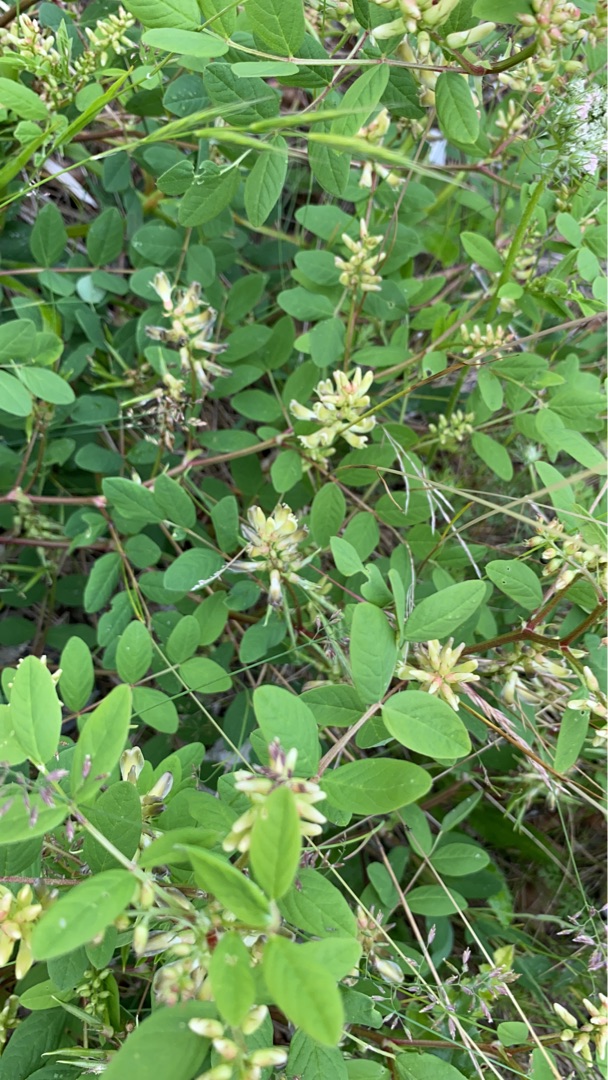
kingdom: Plantae
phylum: Tracheophyta
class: Magnoliopsida
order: Fabales
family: Fabaceae
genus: Astragalus
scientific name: Astragalus glycyphyllos
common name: Sød astragel
